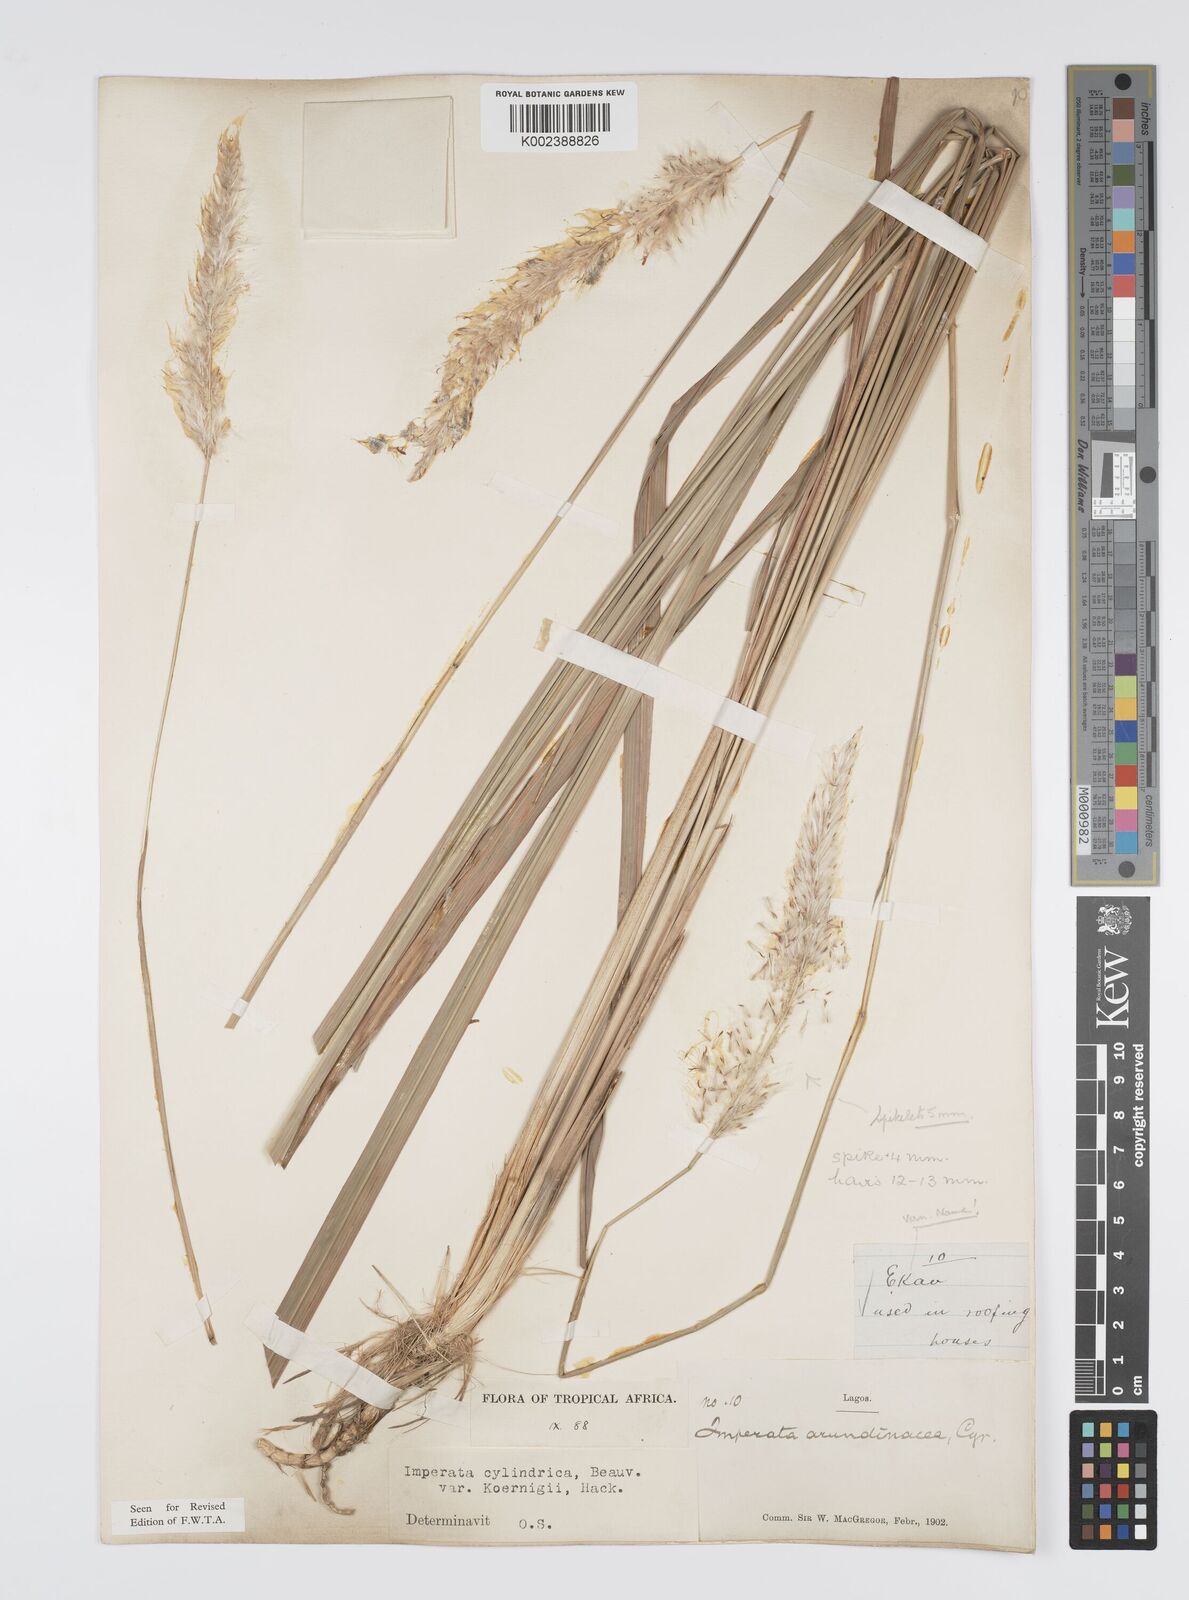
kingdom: Plantae
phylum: Tracheophyta
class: Liliopsida
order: Poales
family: Poaceae
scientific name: Poaceae
